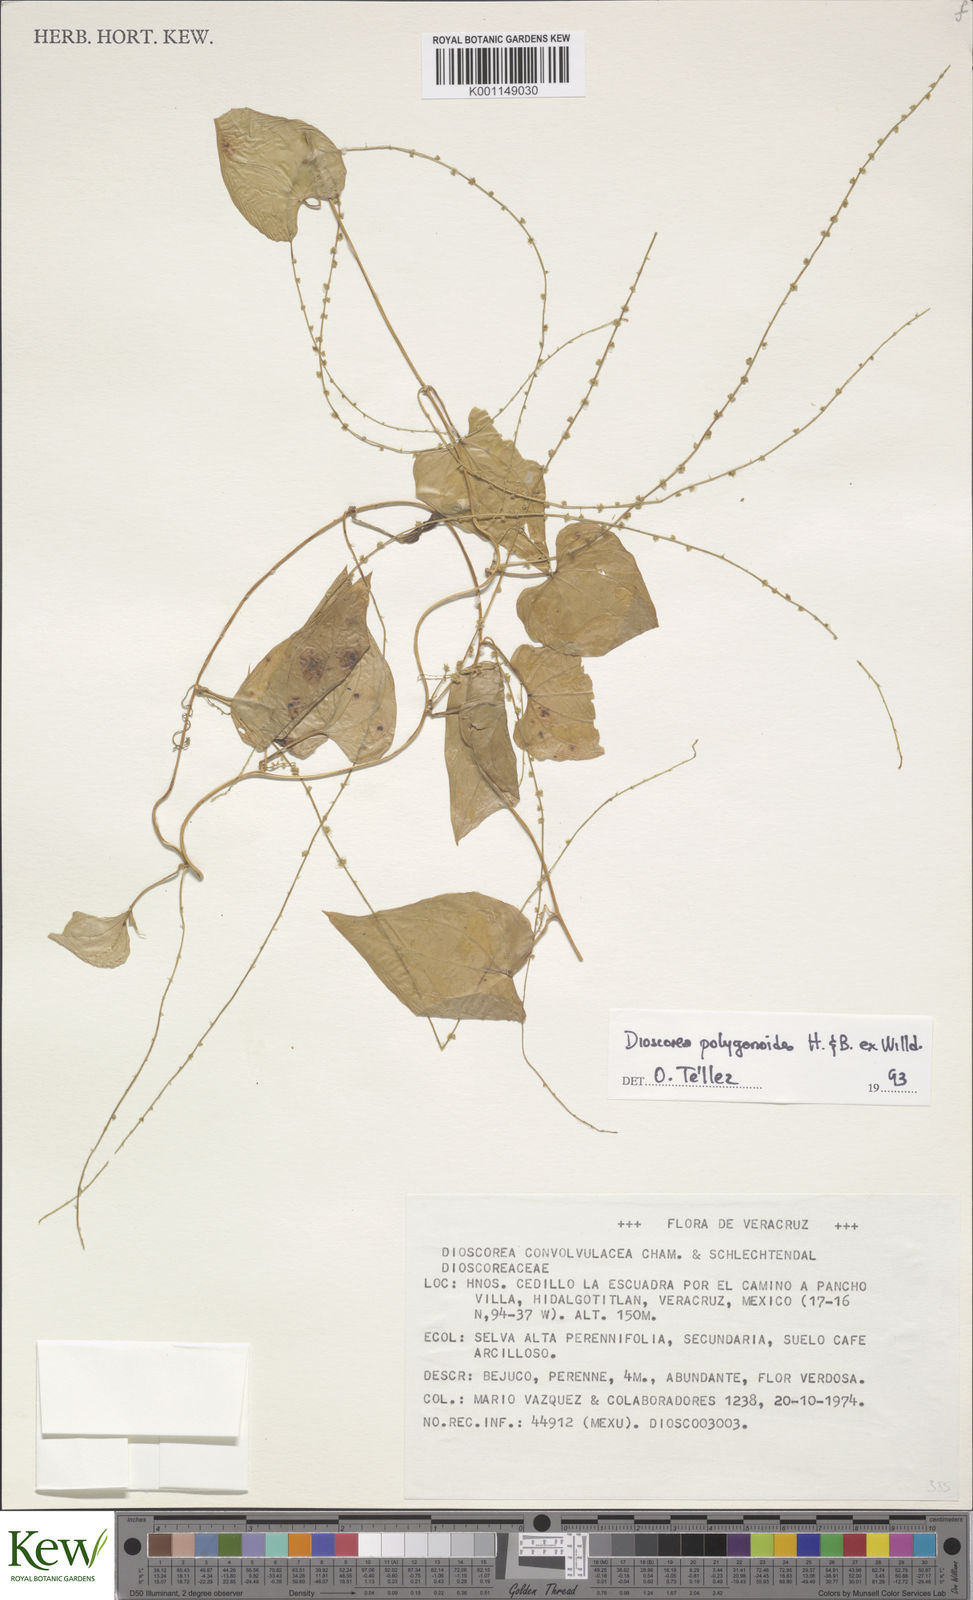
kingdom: Plantae
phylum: Tracheophyta
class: Liliopsida
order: Dioscoreales
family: Dioscoreaceae
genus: Dioscorea
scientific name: Dioscorea polygonoides
